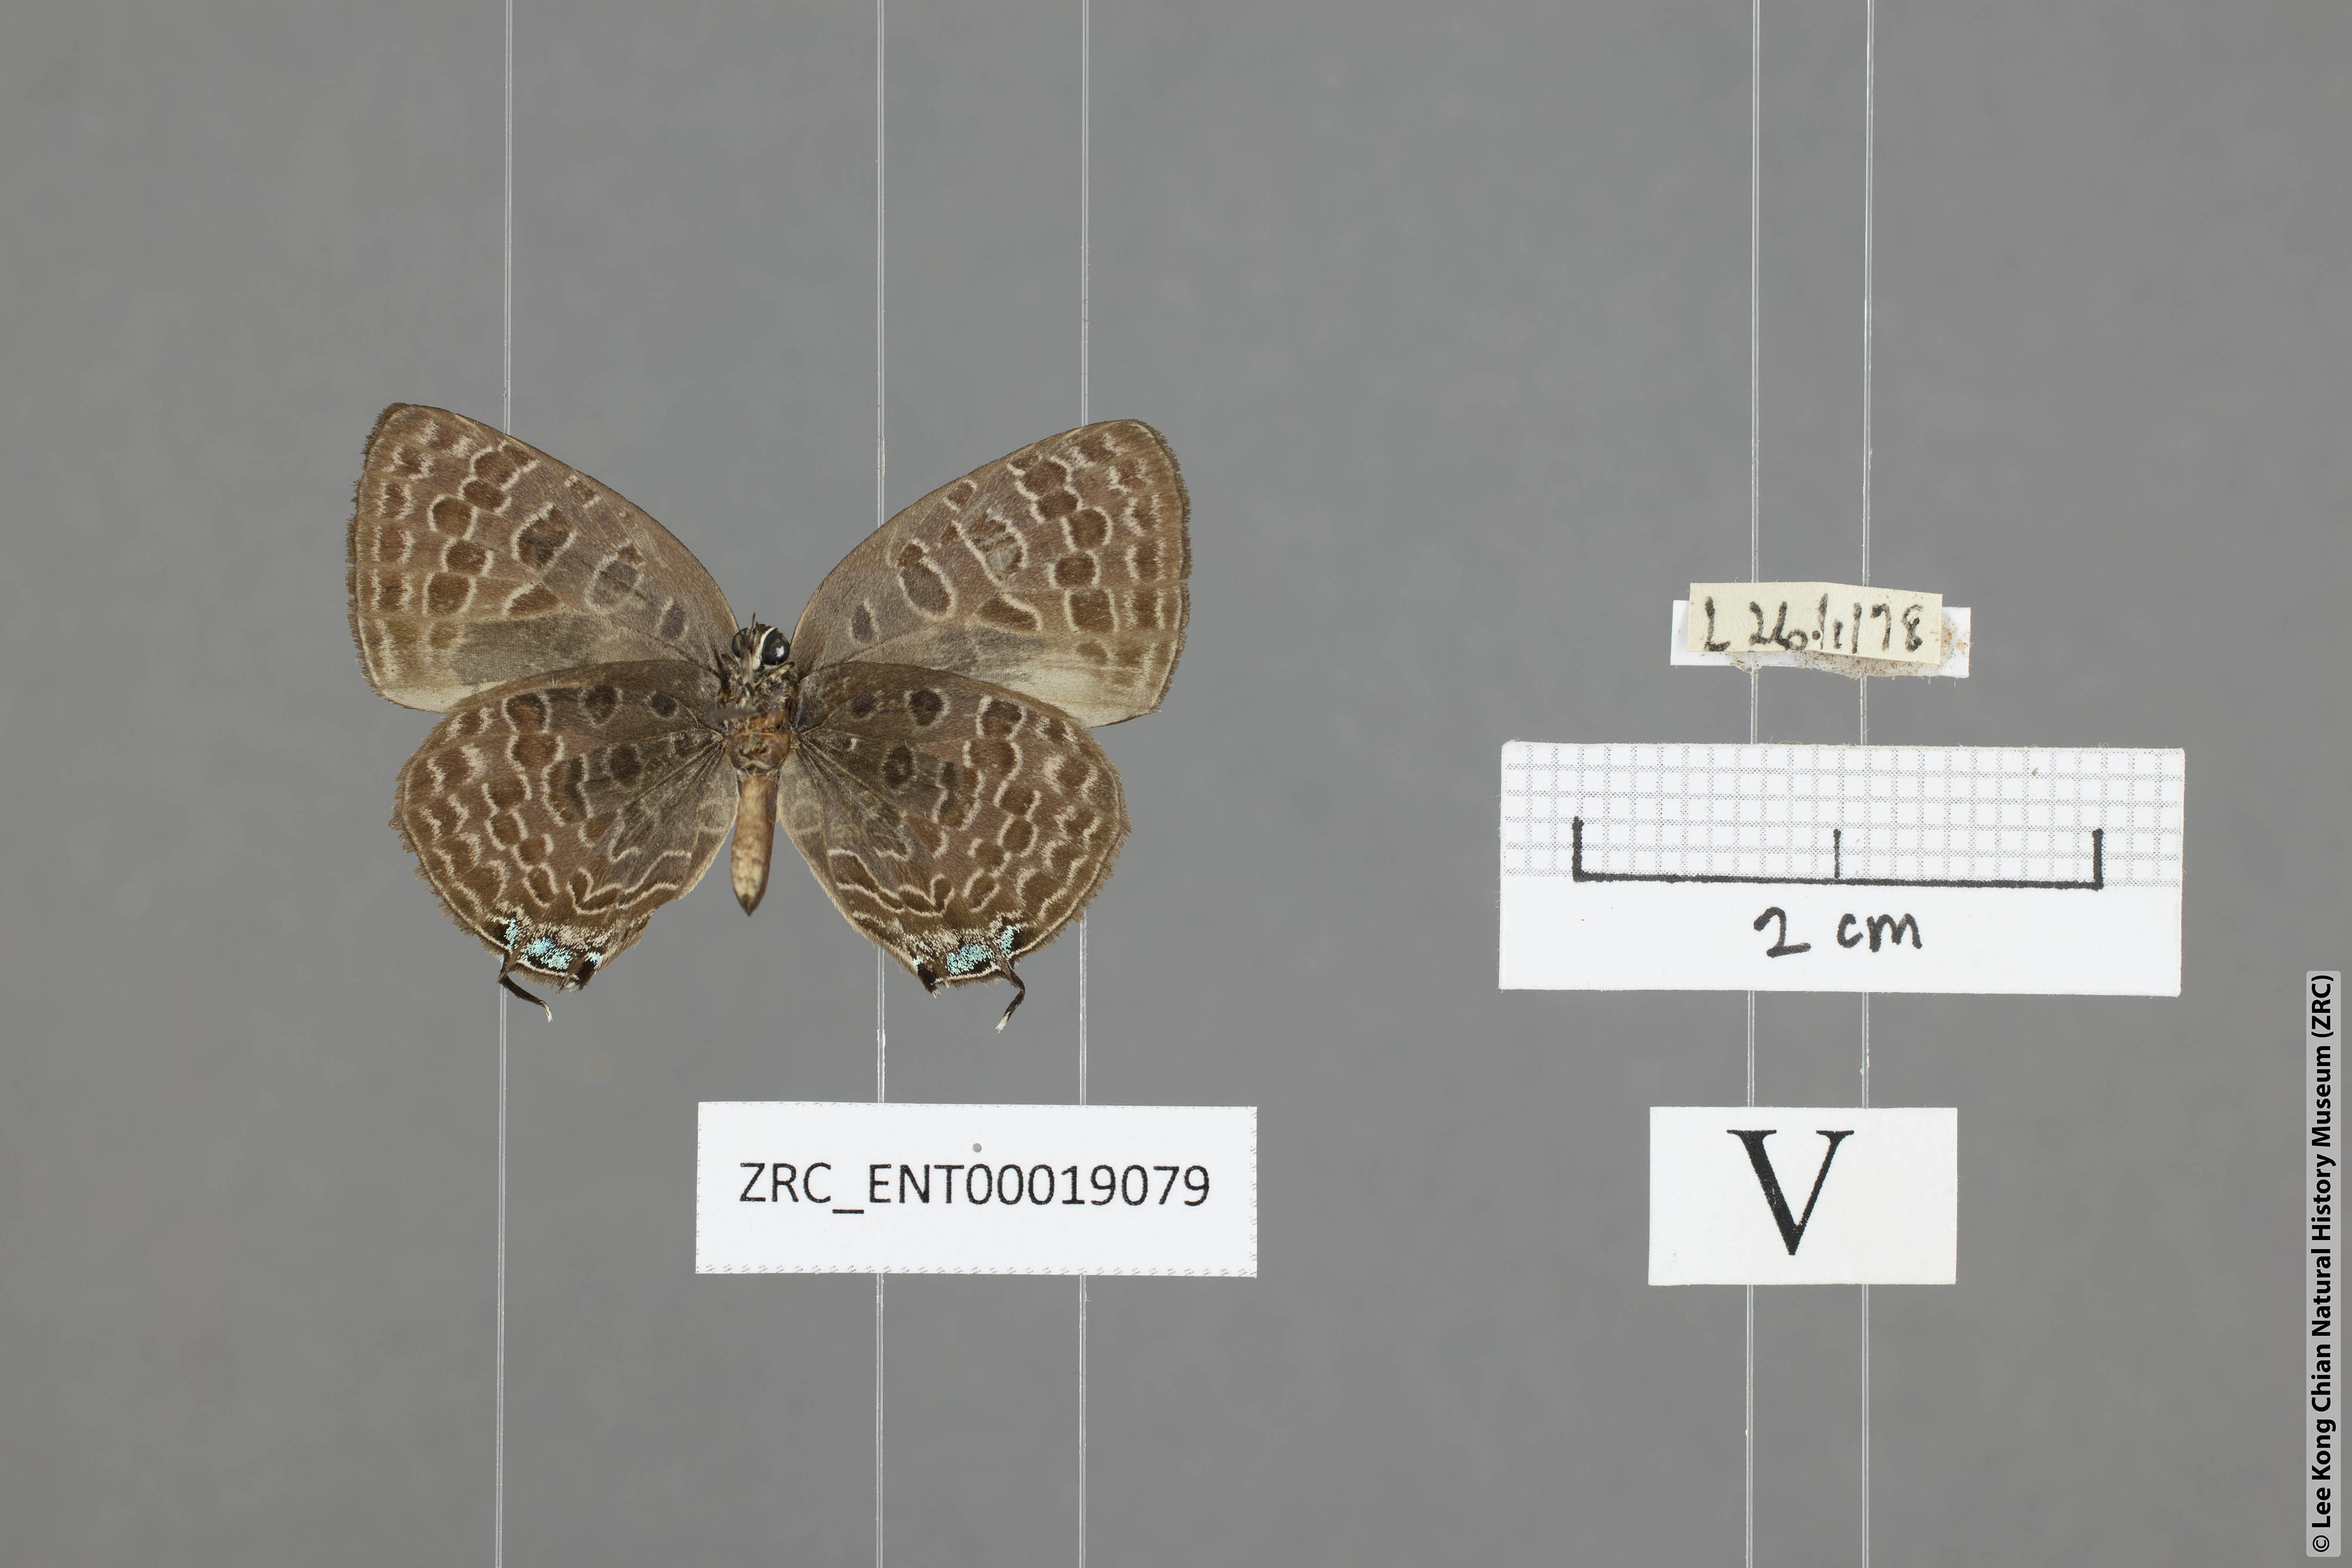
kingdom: Animalia
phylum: Arthropoda
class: Insecta
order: Lepidoptera
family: Lycaenidae
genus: Arhopala
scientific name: Arhopala alitaeus
